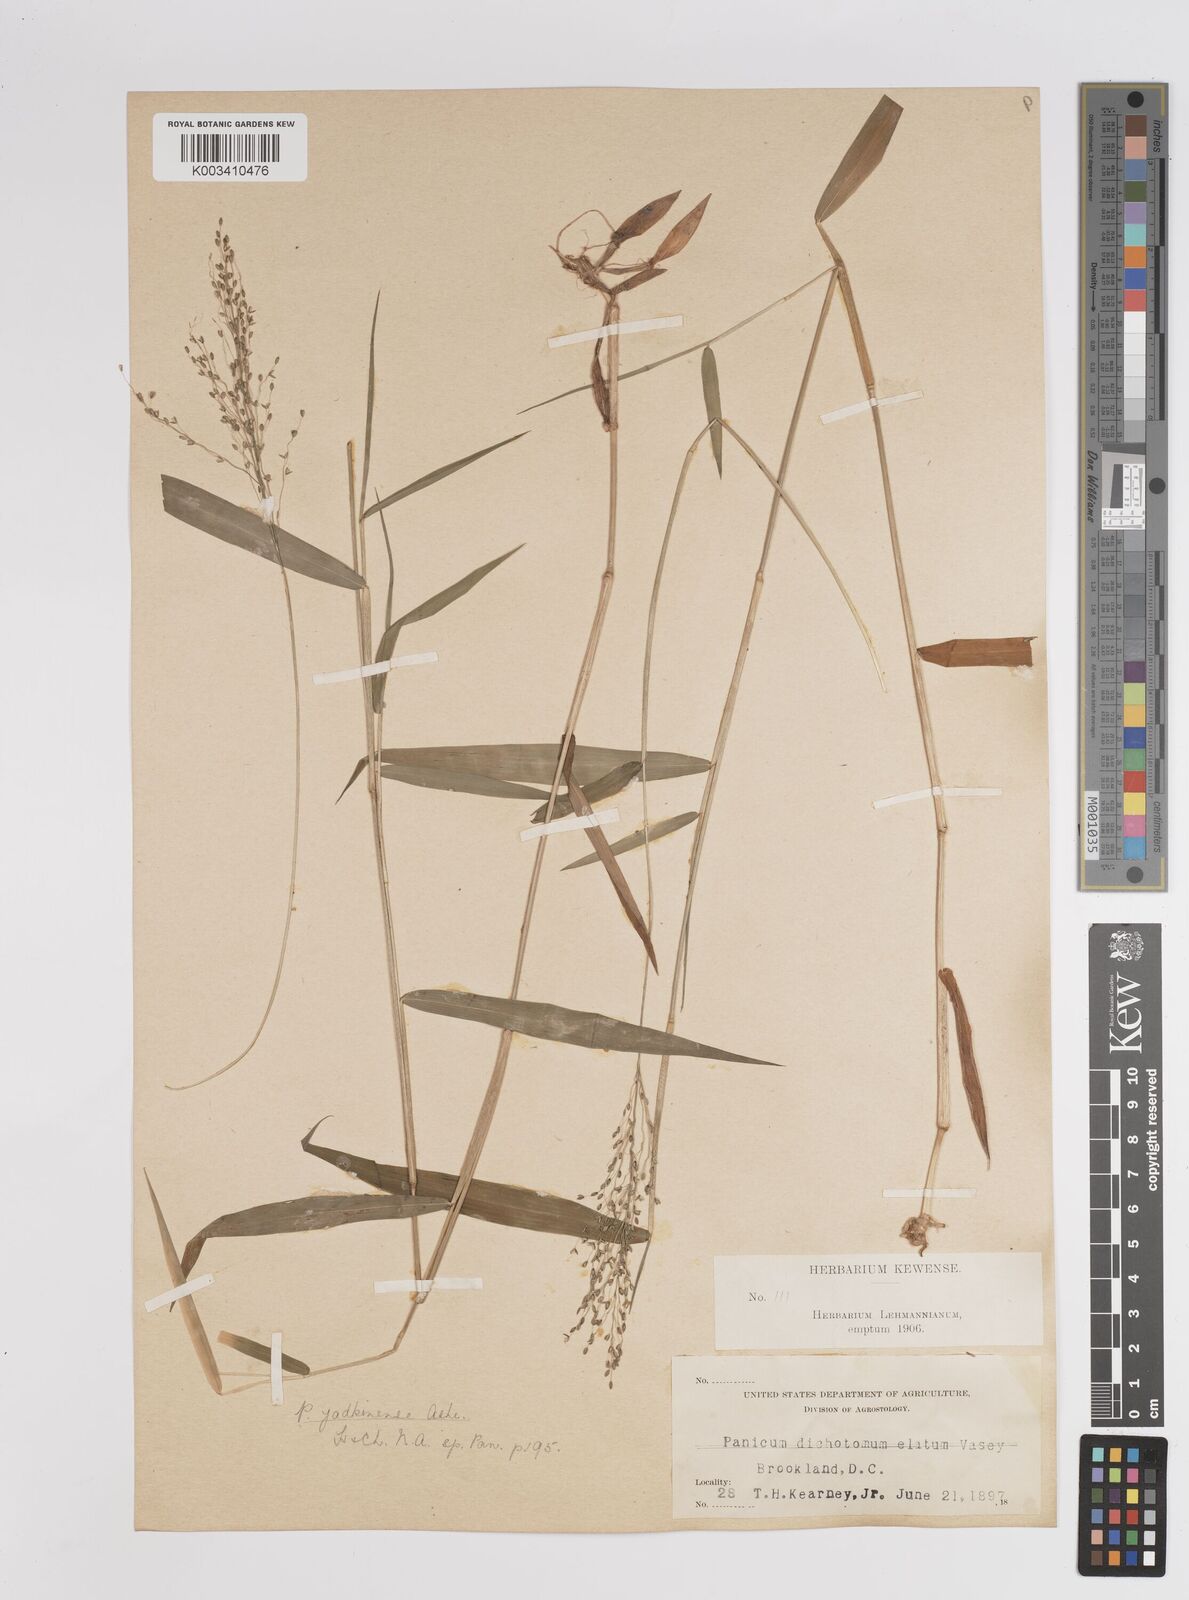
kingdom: Plantae
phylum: Tracheophyta
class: Liliopsida
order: Poales
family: Poaceae
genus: Dichanthelium
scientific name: Dichanthelium dichotomum
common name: Cypress panicgrass
